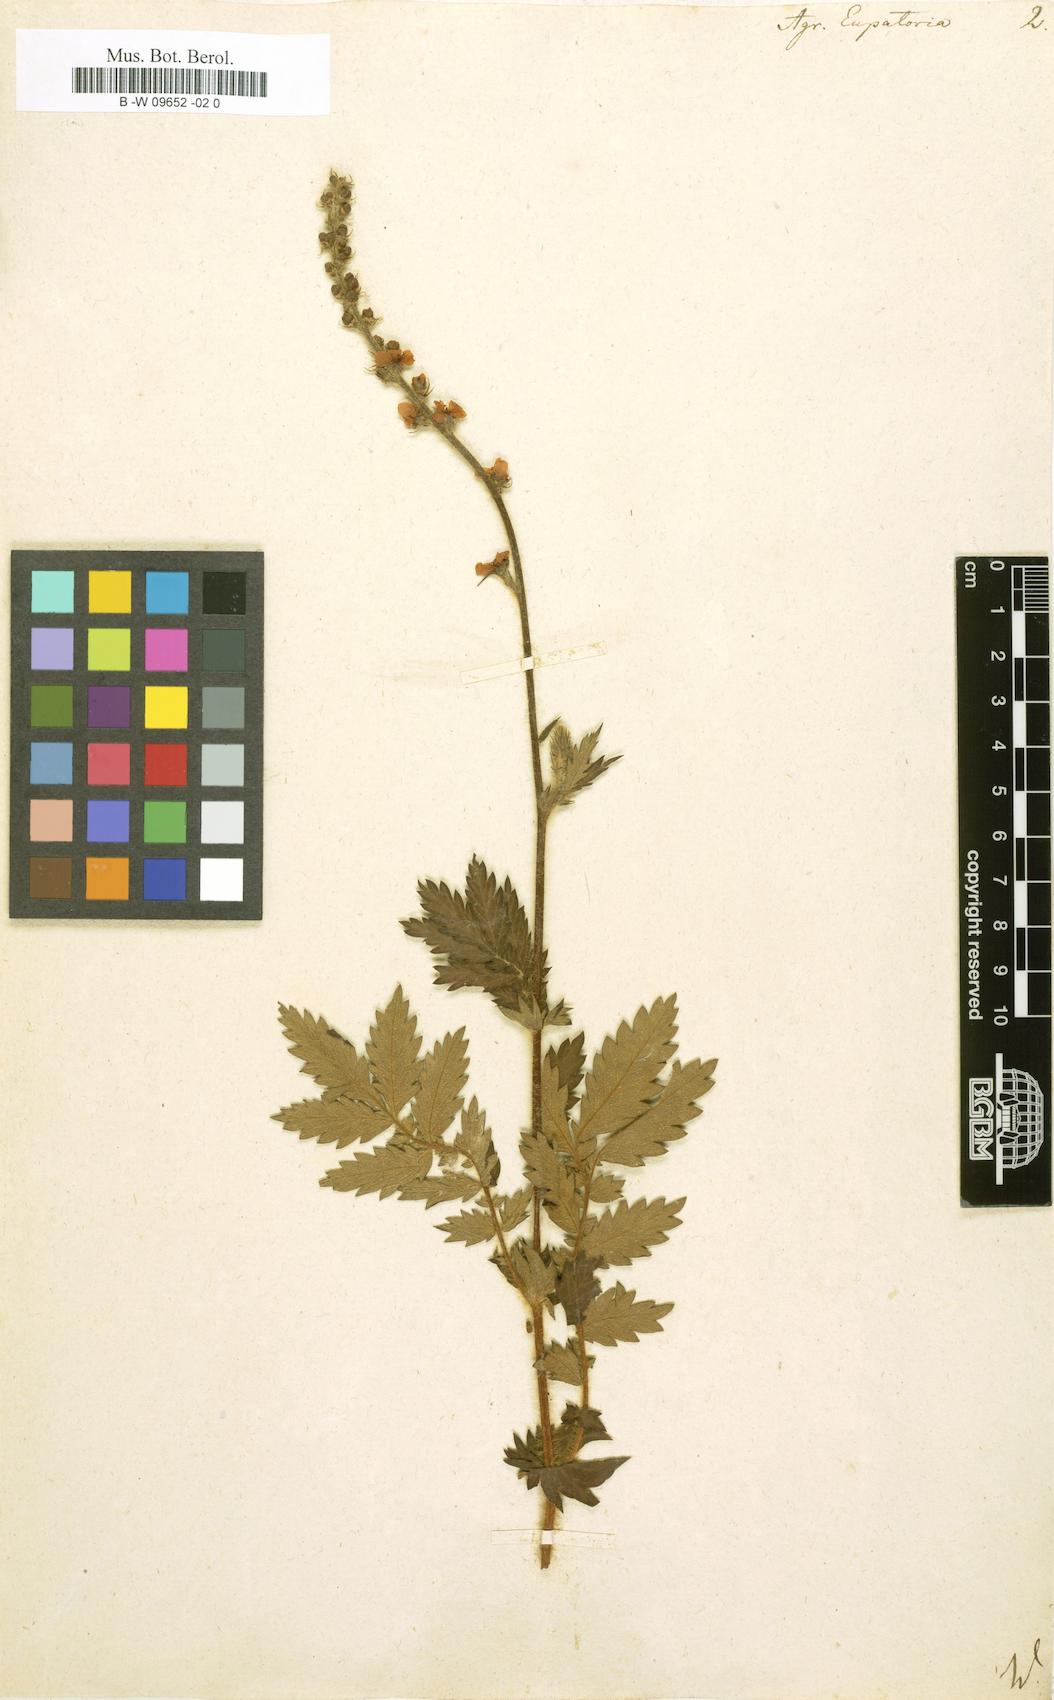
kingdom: Plantae
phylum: Tracheophyta
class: Magnoliopsida
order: Rosales
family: Rosaceae
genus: Agrimonia
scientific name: Agrimonia eupatoria
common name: Agrimony
